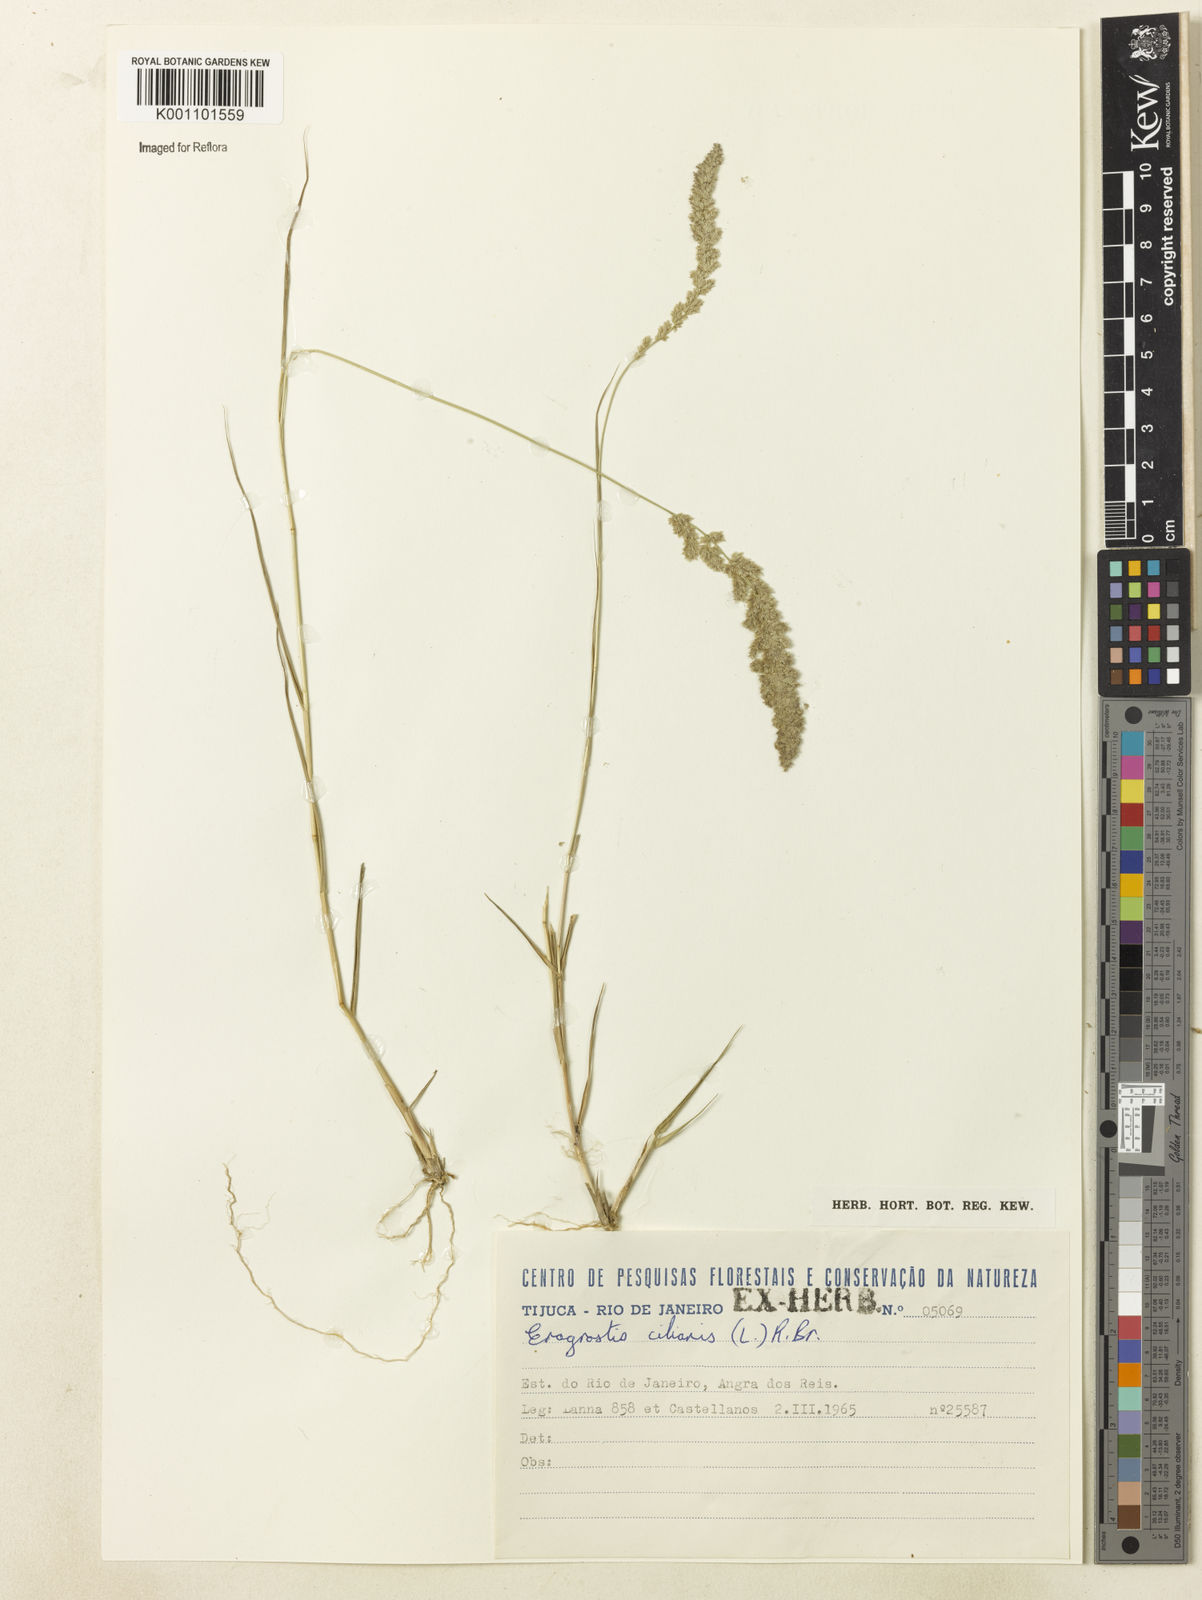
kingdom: Plantae
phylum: Tracheophyta
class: Liliopsida
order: Poales
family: Poaceae
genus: Eragrostis
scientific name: Eragrostis ciliaris
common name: Gophertail lovegrass
